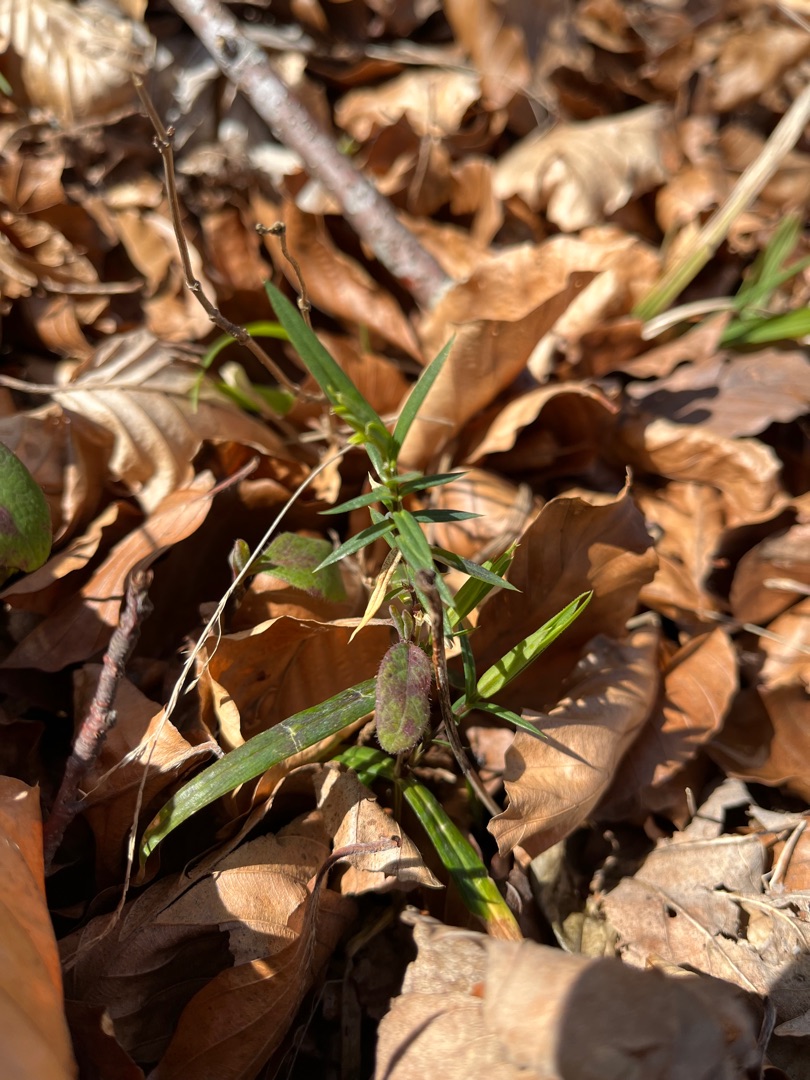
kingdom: Plantae
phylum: Tracheophyta
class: Magnoliopsida
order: Caryophyllales
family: Caryophyllaceae
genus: Rabelera
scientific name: Rabelera holostea
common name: Stor fladstjerne
